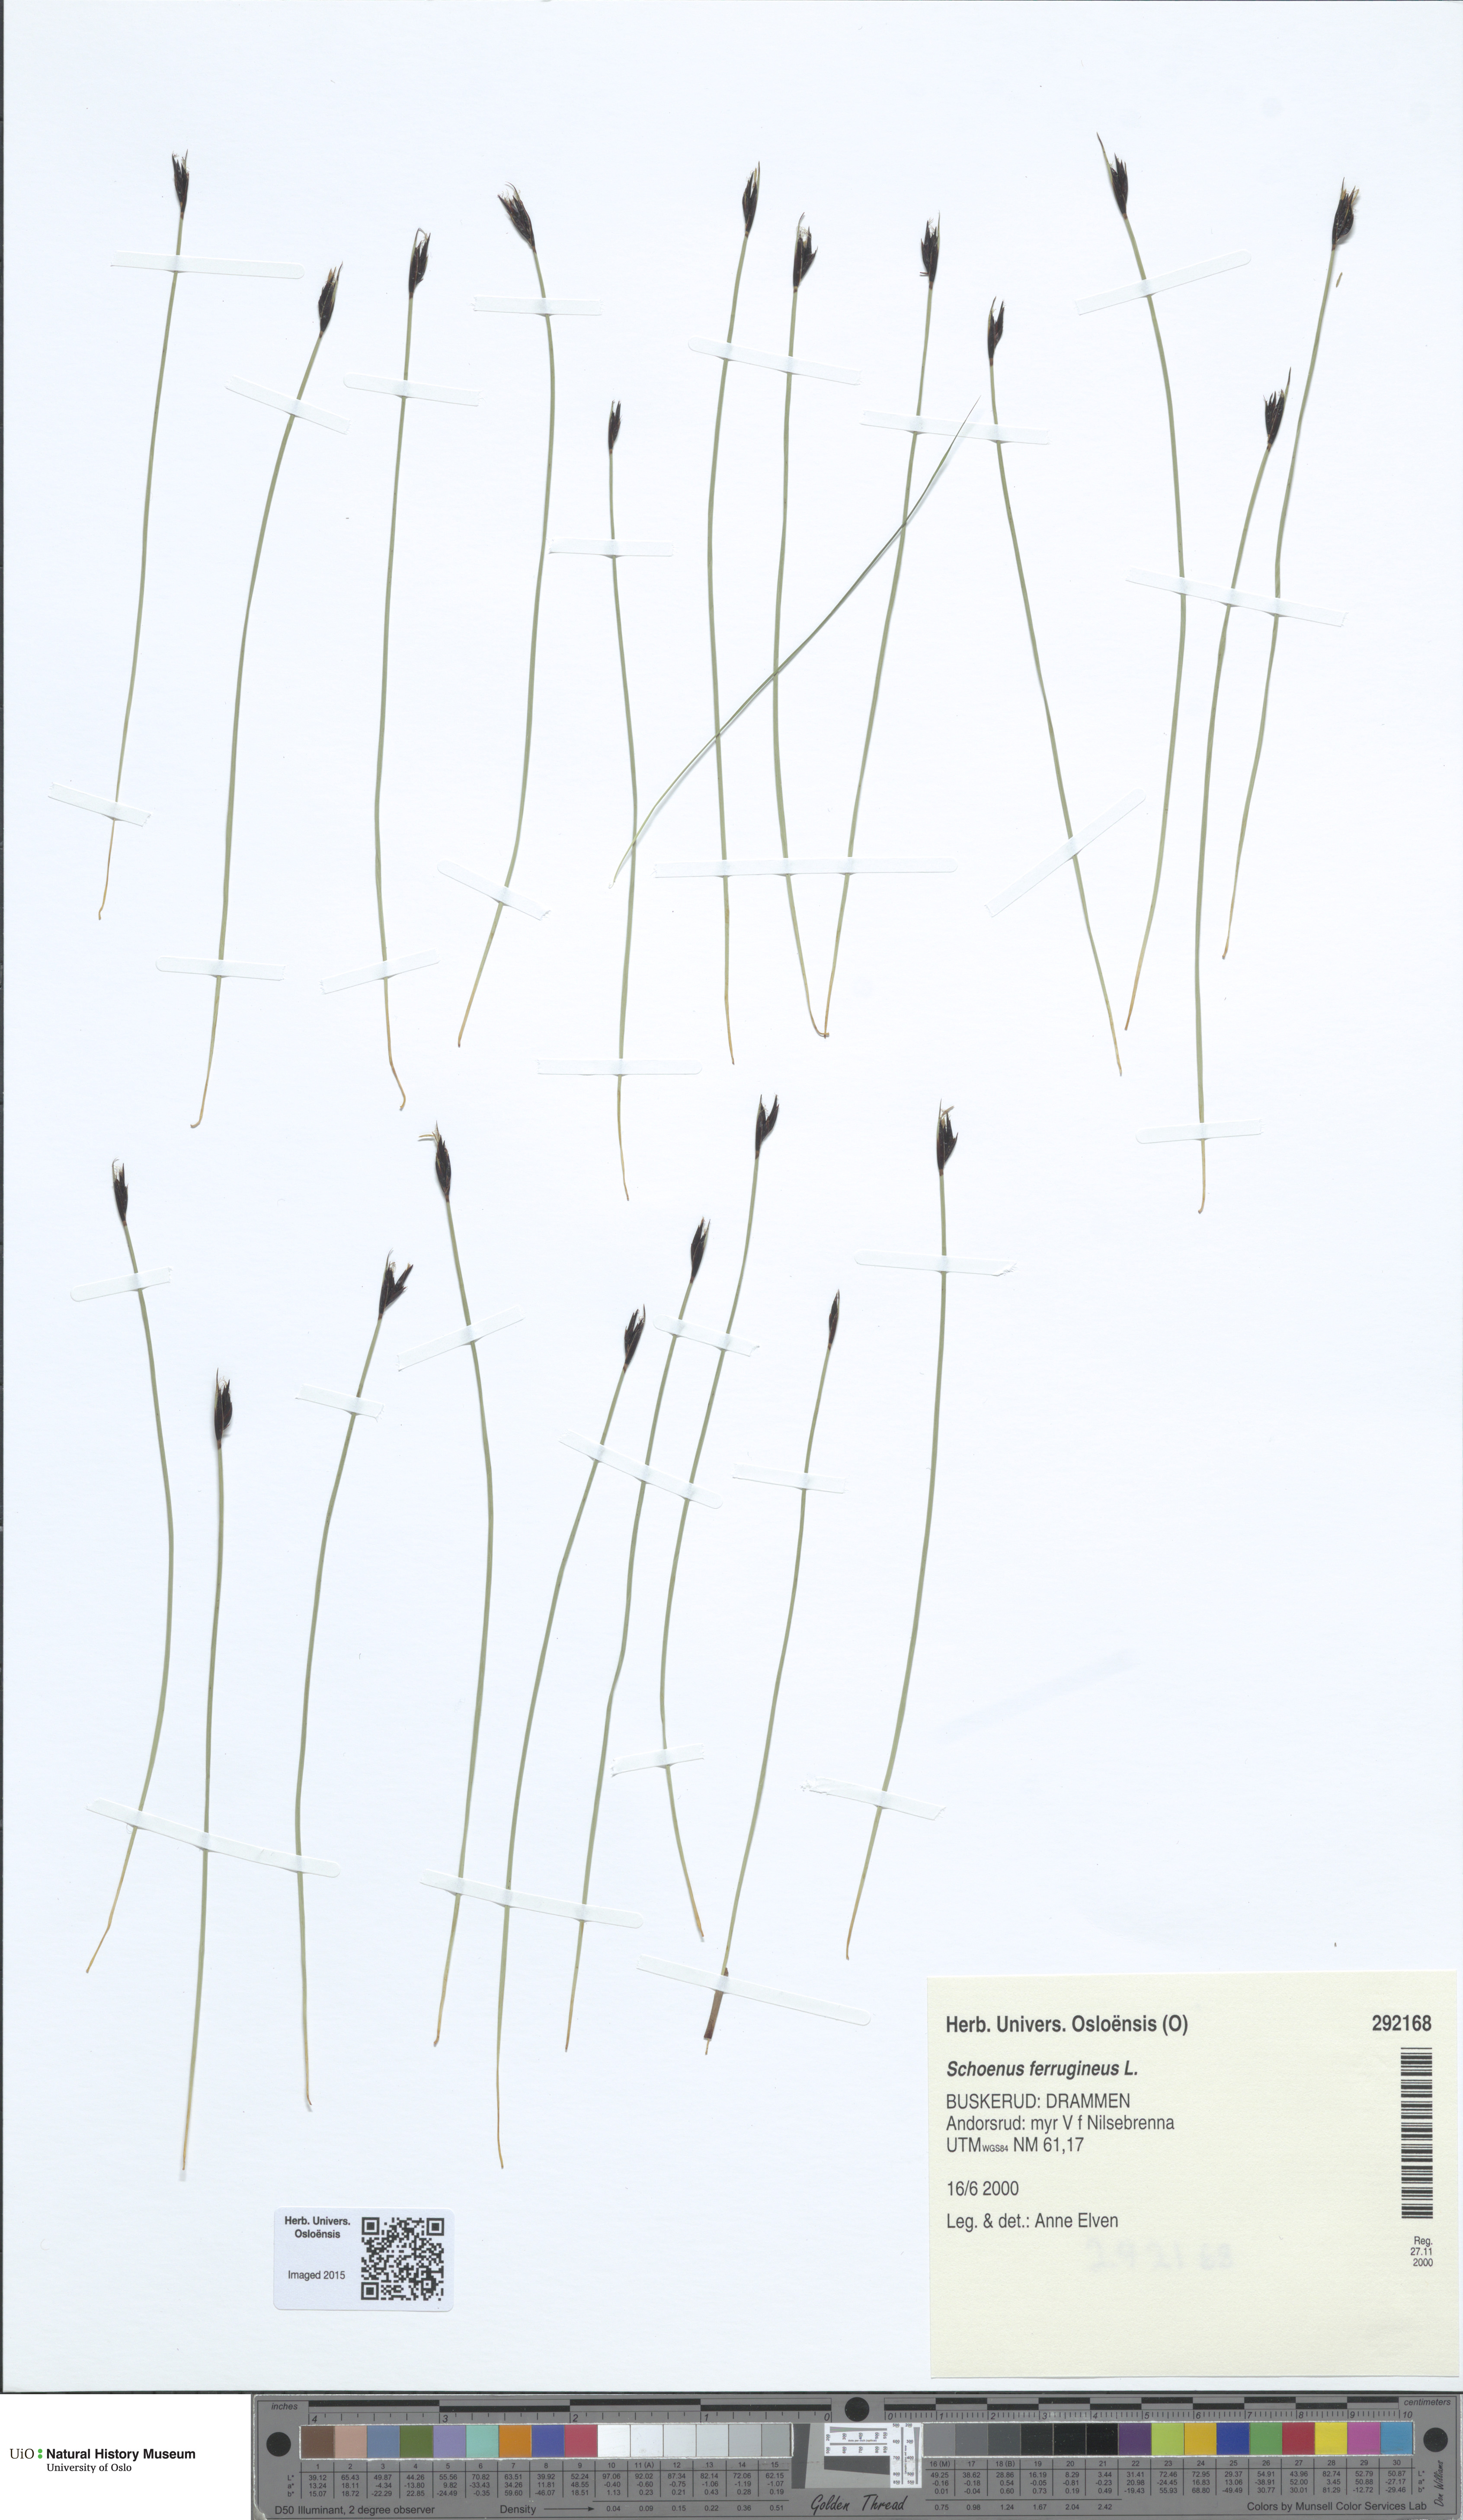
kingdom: Plantae
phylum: Tracheophyta
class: Liliopsida
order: Poales
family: Cyperaceae
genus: Schoenus
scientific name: Schoenus ferrugineus
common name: Brown bog-rush
